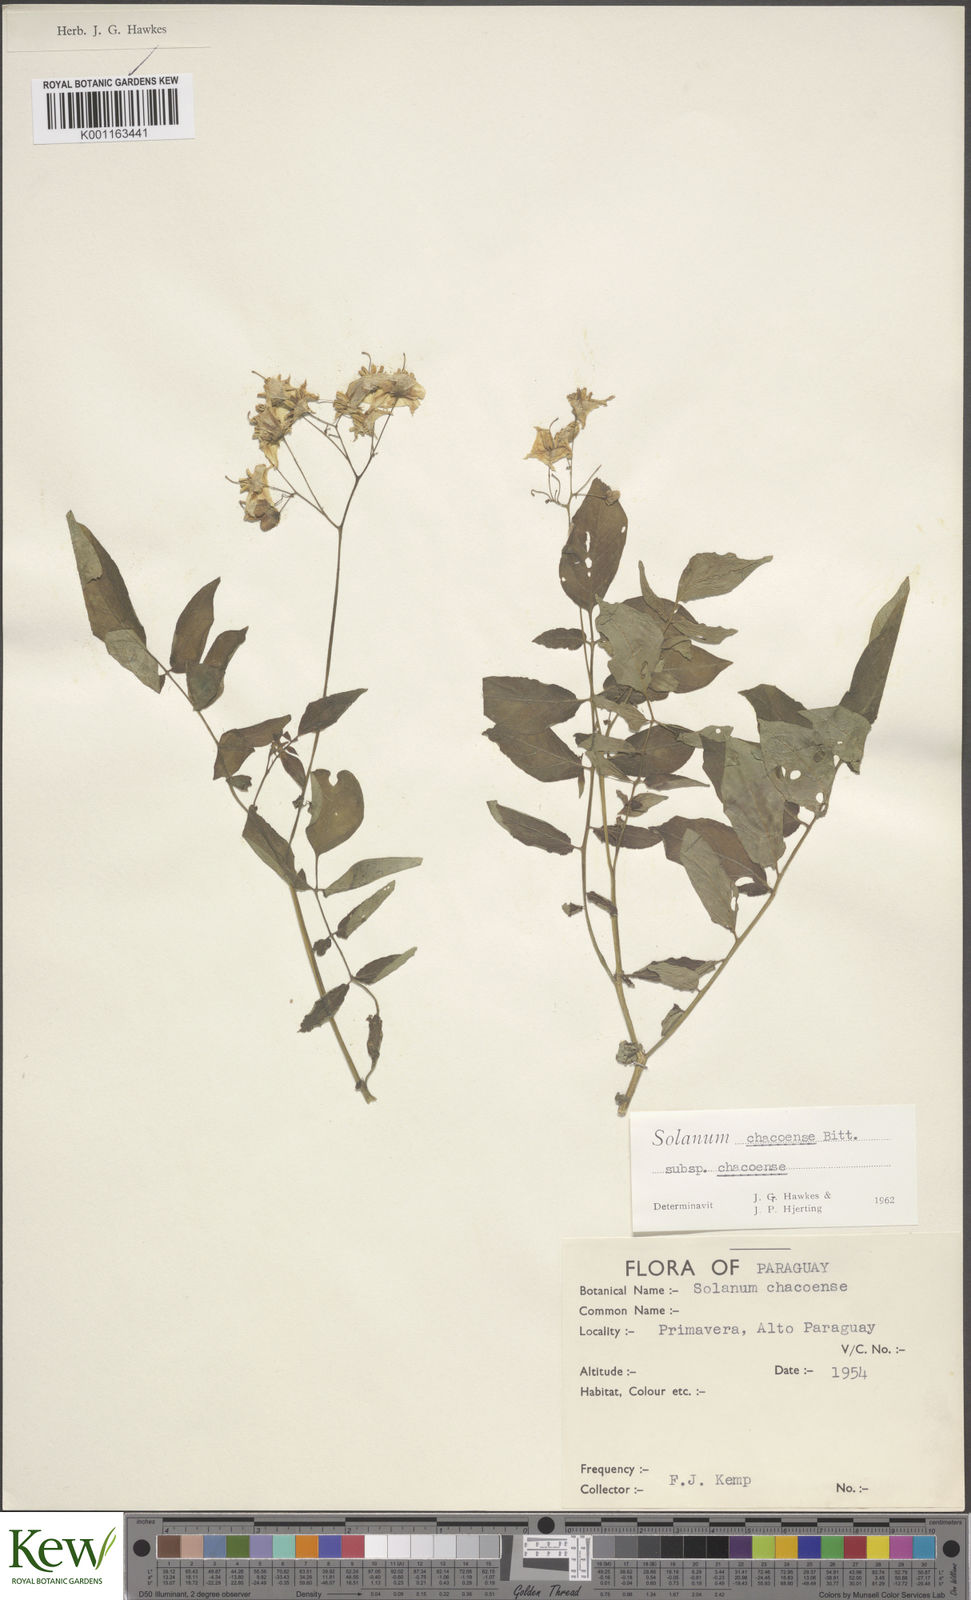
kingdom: Plantae
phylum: Tracheophyta
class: Magnoliopsida
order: Solanales
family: Solanaceae
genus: Solanum
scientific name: Solanum chacoense
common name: Chaco potato
